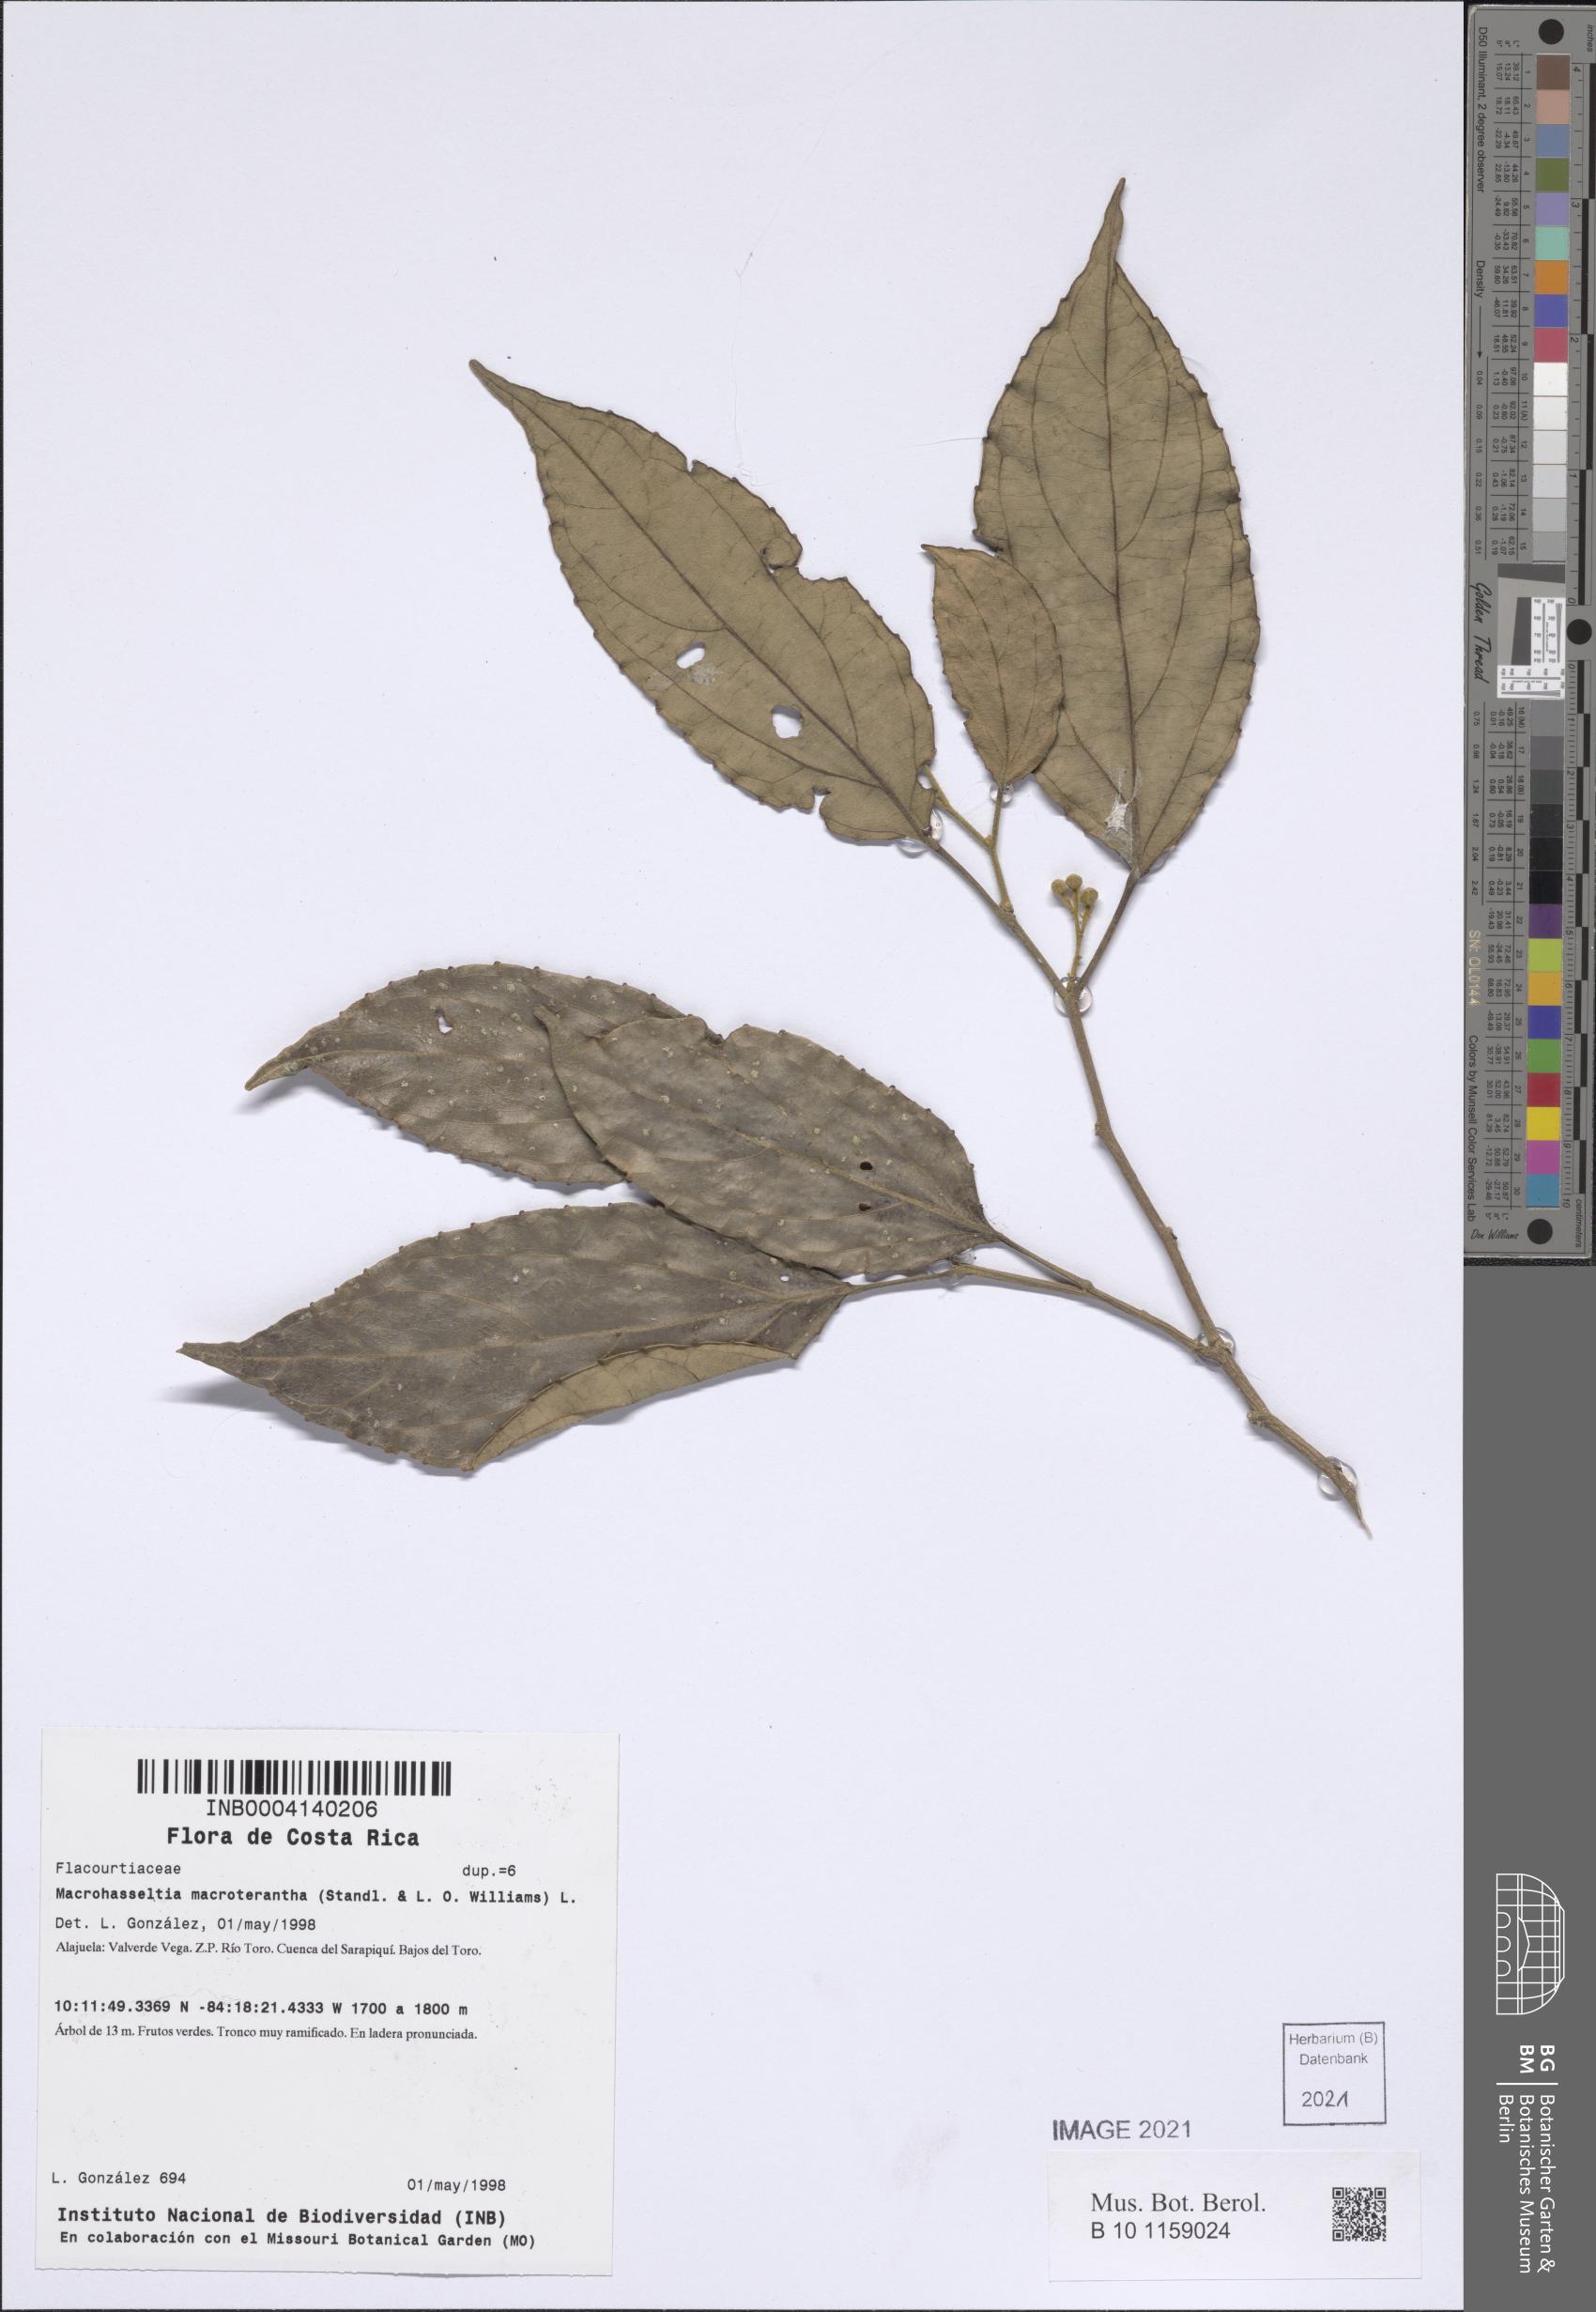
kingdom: Plantae
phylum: Tracheophyta
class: Magnoliopsida
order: Malpighiales
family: Salicaceae
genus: Macrohasseltia
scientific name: Macrohasseltia macroterantha
